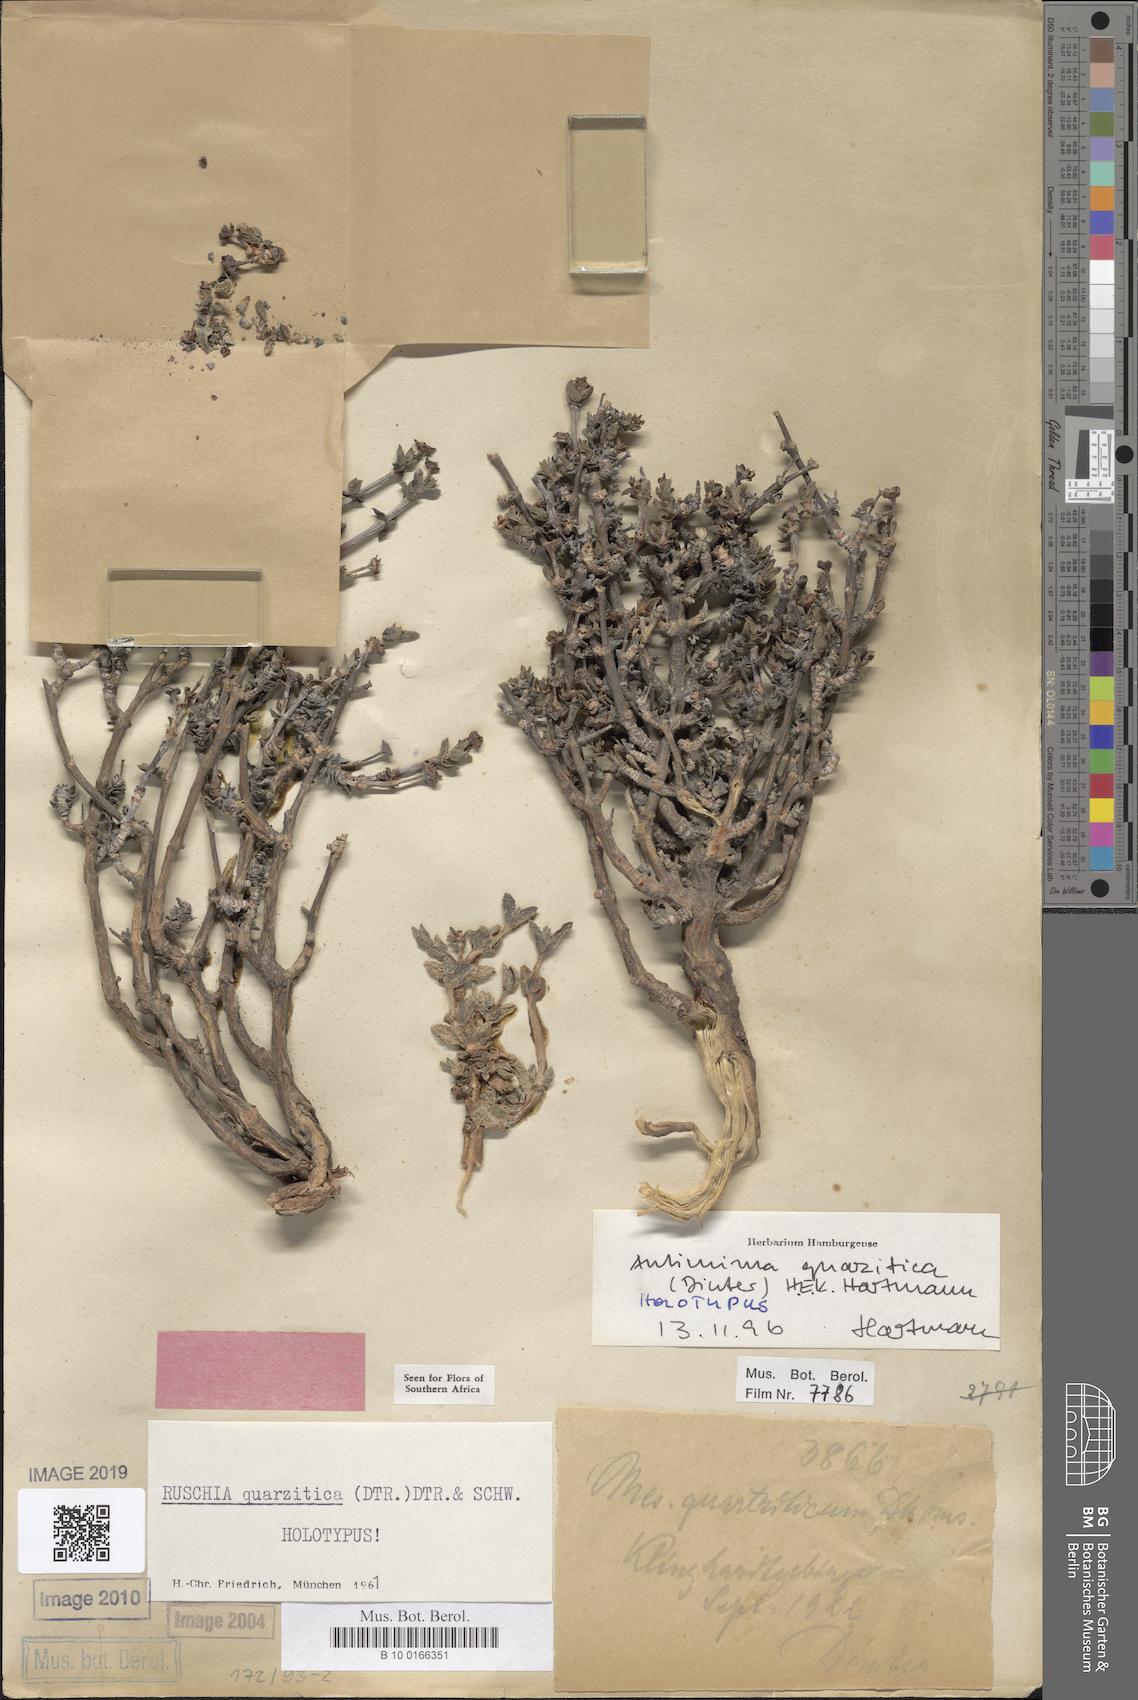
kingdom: Plantae
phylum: Tracheophyta
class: Magnoliopsida
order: Caryophyllales
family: Aizoaceae
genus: Antimima
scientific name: Antimima quarzitica
